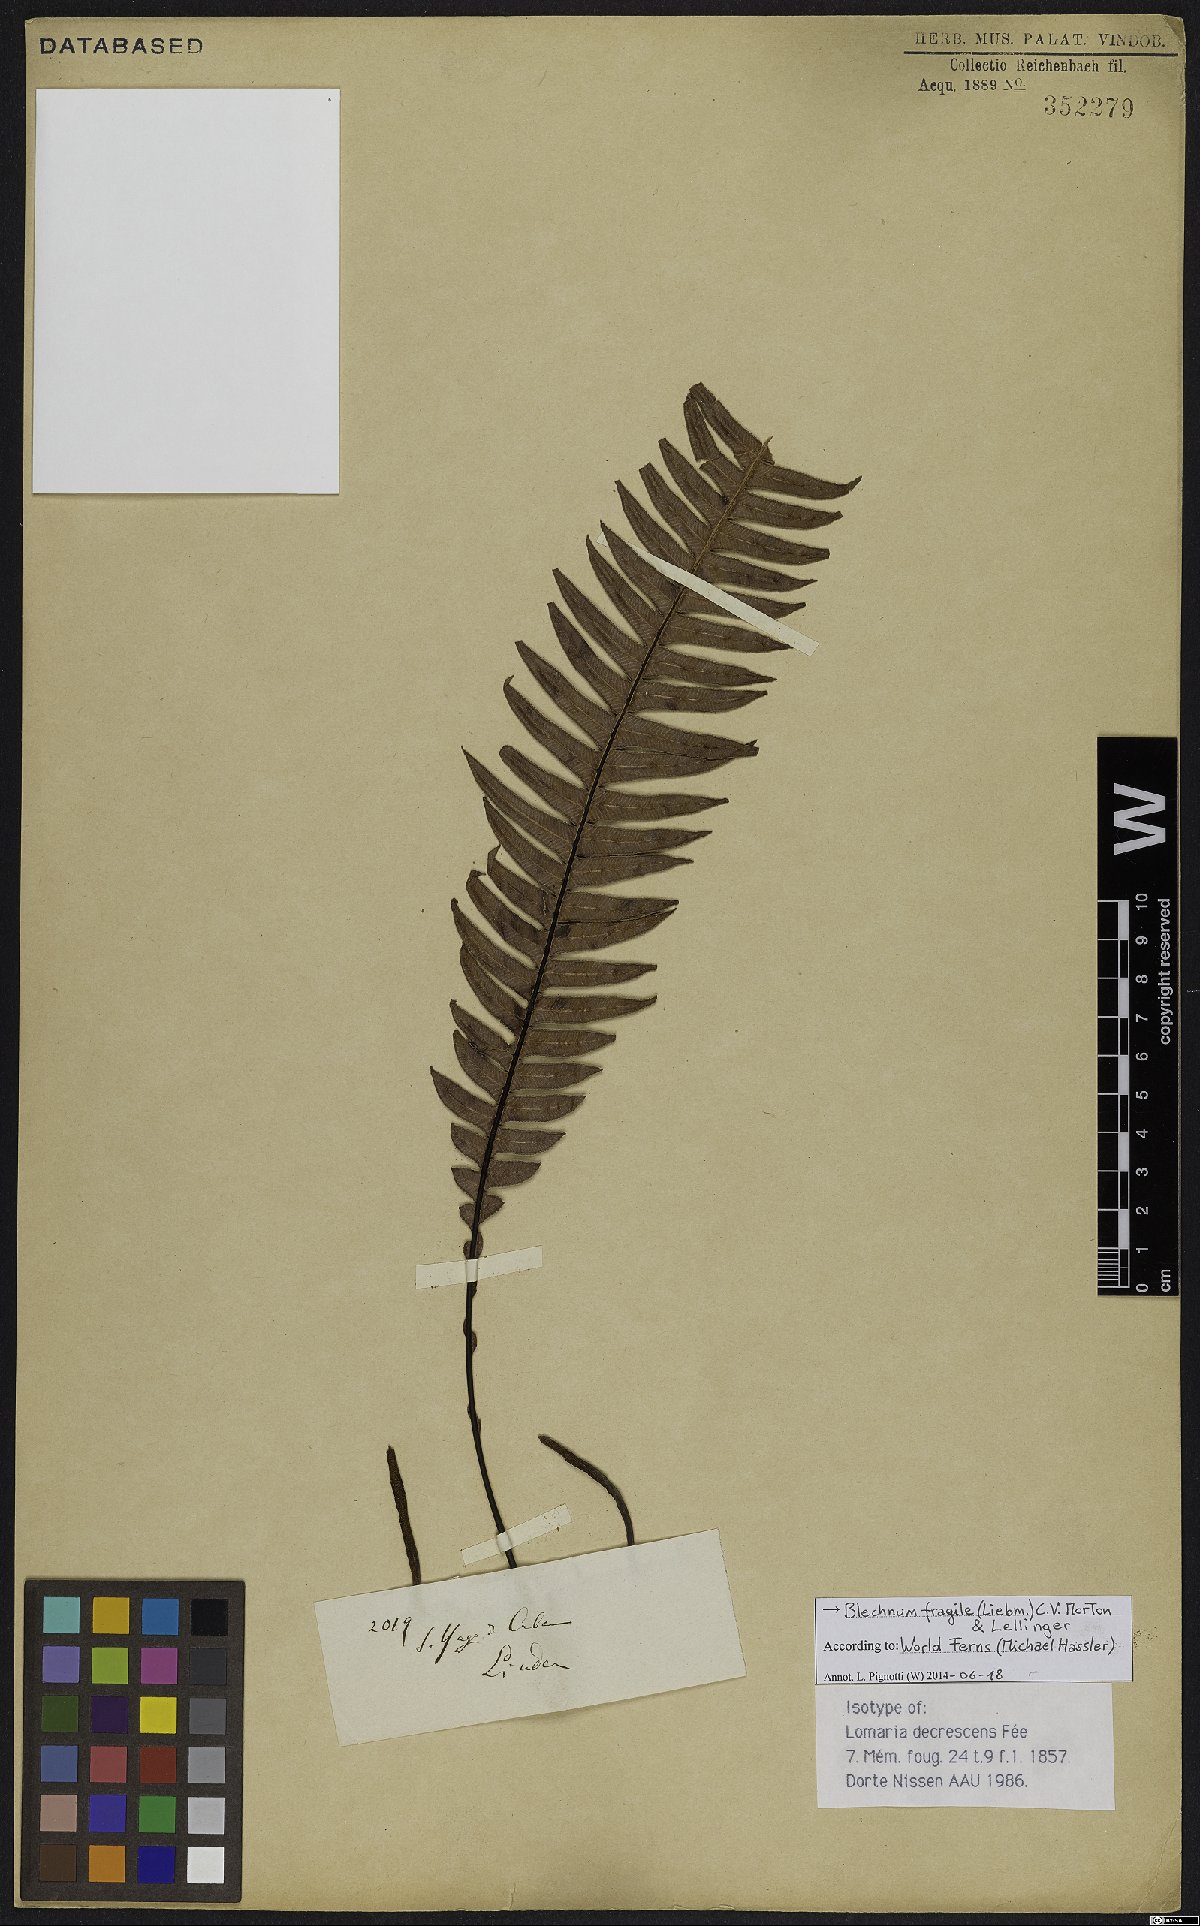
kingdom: Plantae
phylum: Tracheophyta
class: Polypodiopsida
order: Polypodiales
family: Blechnaceae
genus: Lomaridium
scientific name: Lomaridium fragile
